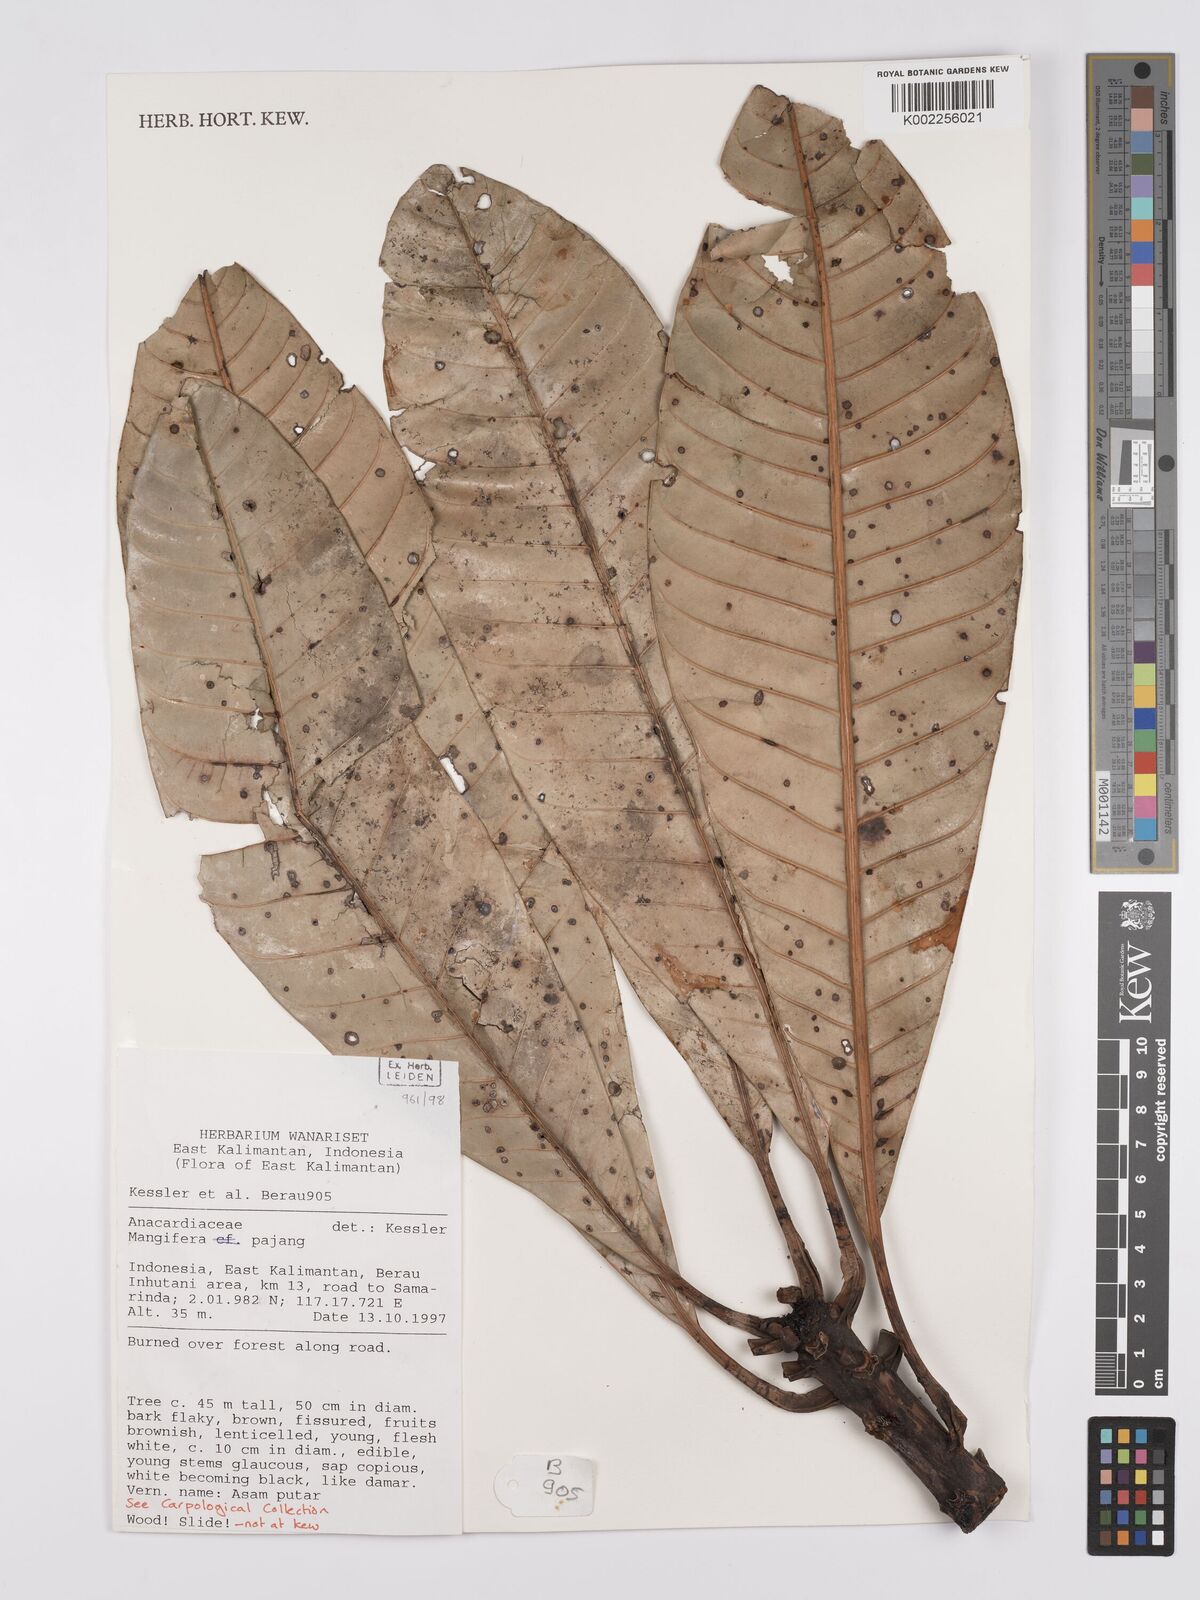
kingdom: Plantae
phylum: Tracheophyta
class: Magnoliopsida
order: Sapindales
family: Anacardiaceae
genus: Mangifera
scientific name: Mangifera pajang
